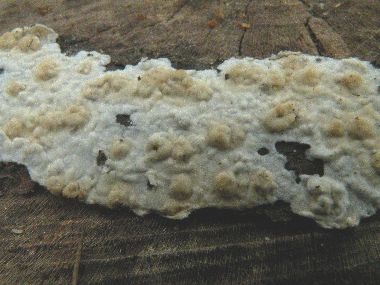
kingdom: Fungi
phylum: Basidiomycota
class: Agaricomycetes
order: Agaricales
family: Physalacriaceae
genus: Cylindrobasidium
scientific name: Cylindrobasidium evolvens
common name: sprækkehinde
